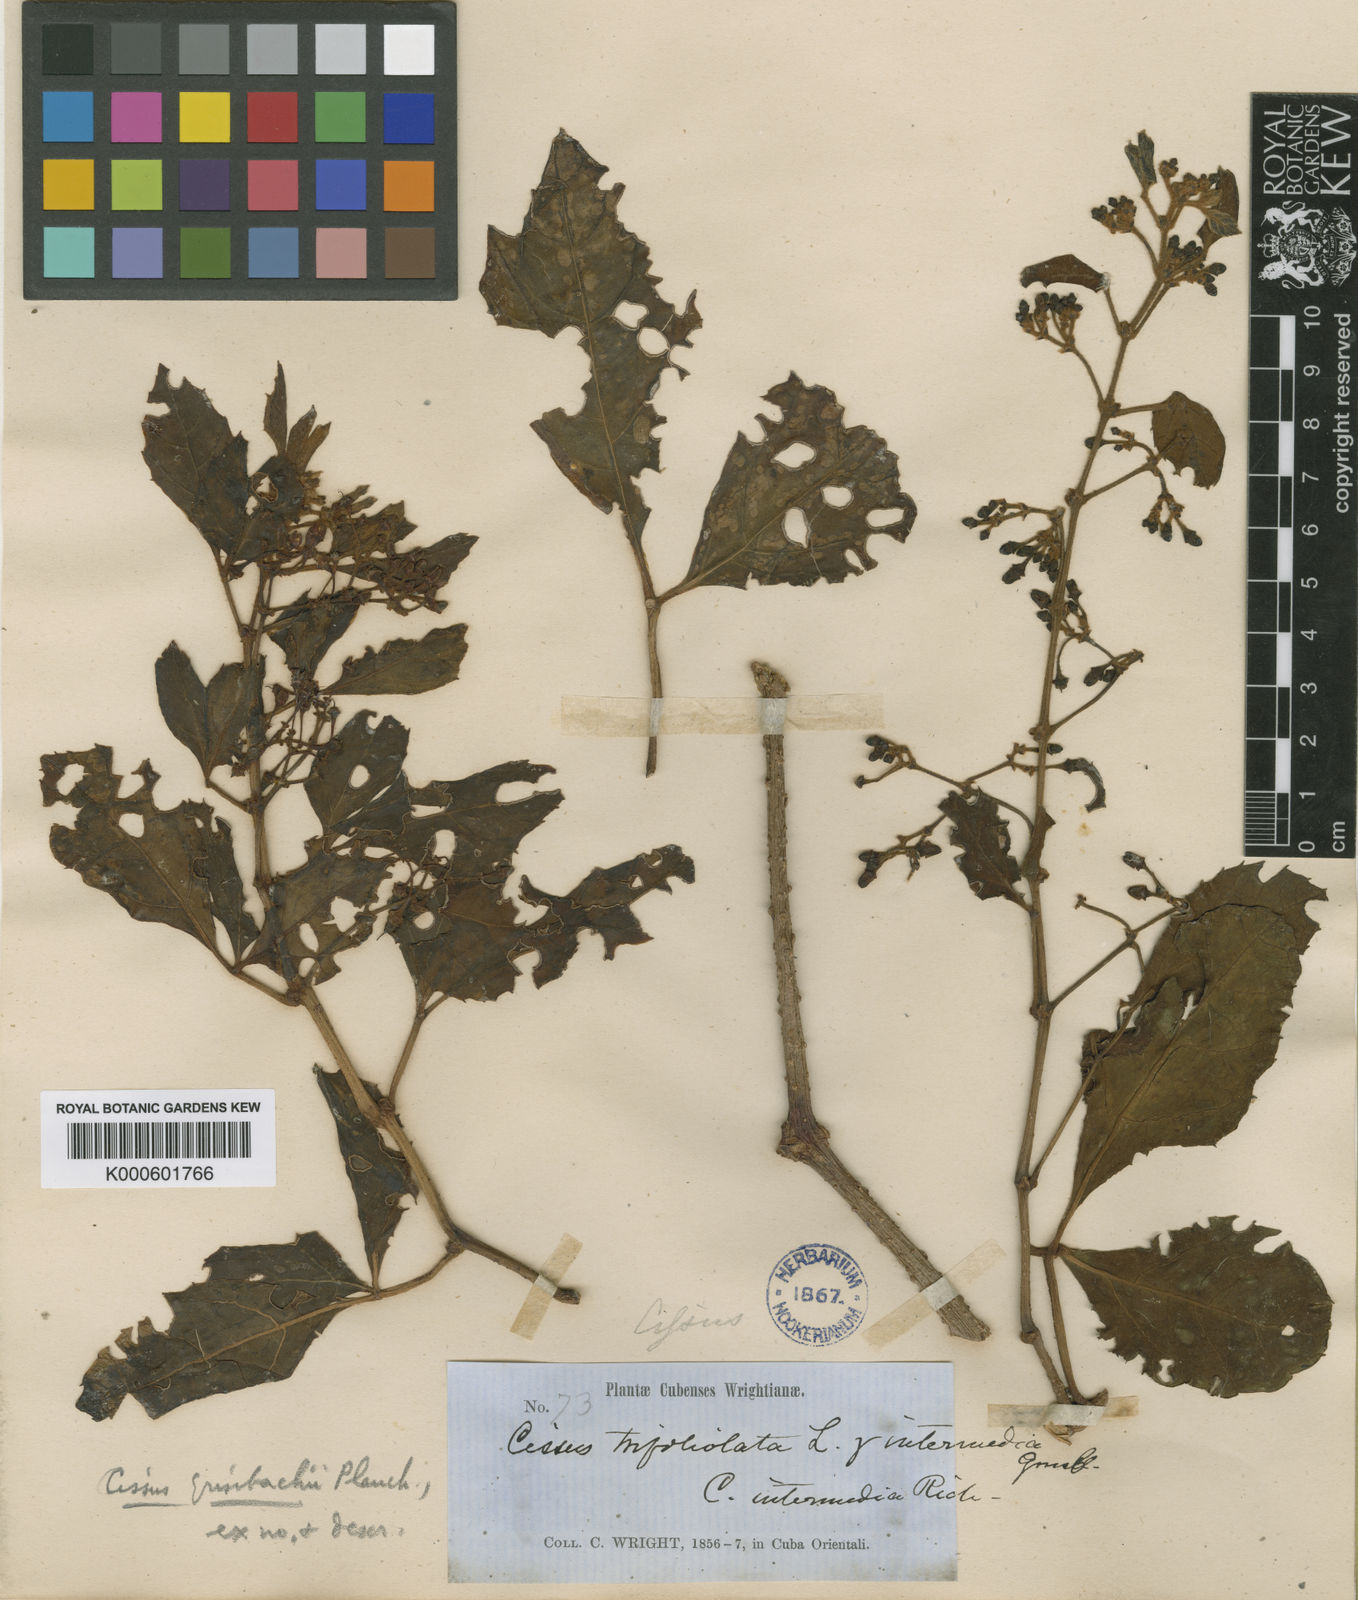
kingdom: Plantae
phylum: Tracheophyta
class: Magnoliopsida
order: Vitales
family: Vitaceae
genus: Cissus
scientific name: Cissus microcarpa
